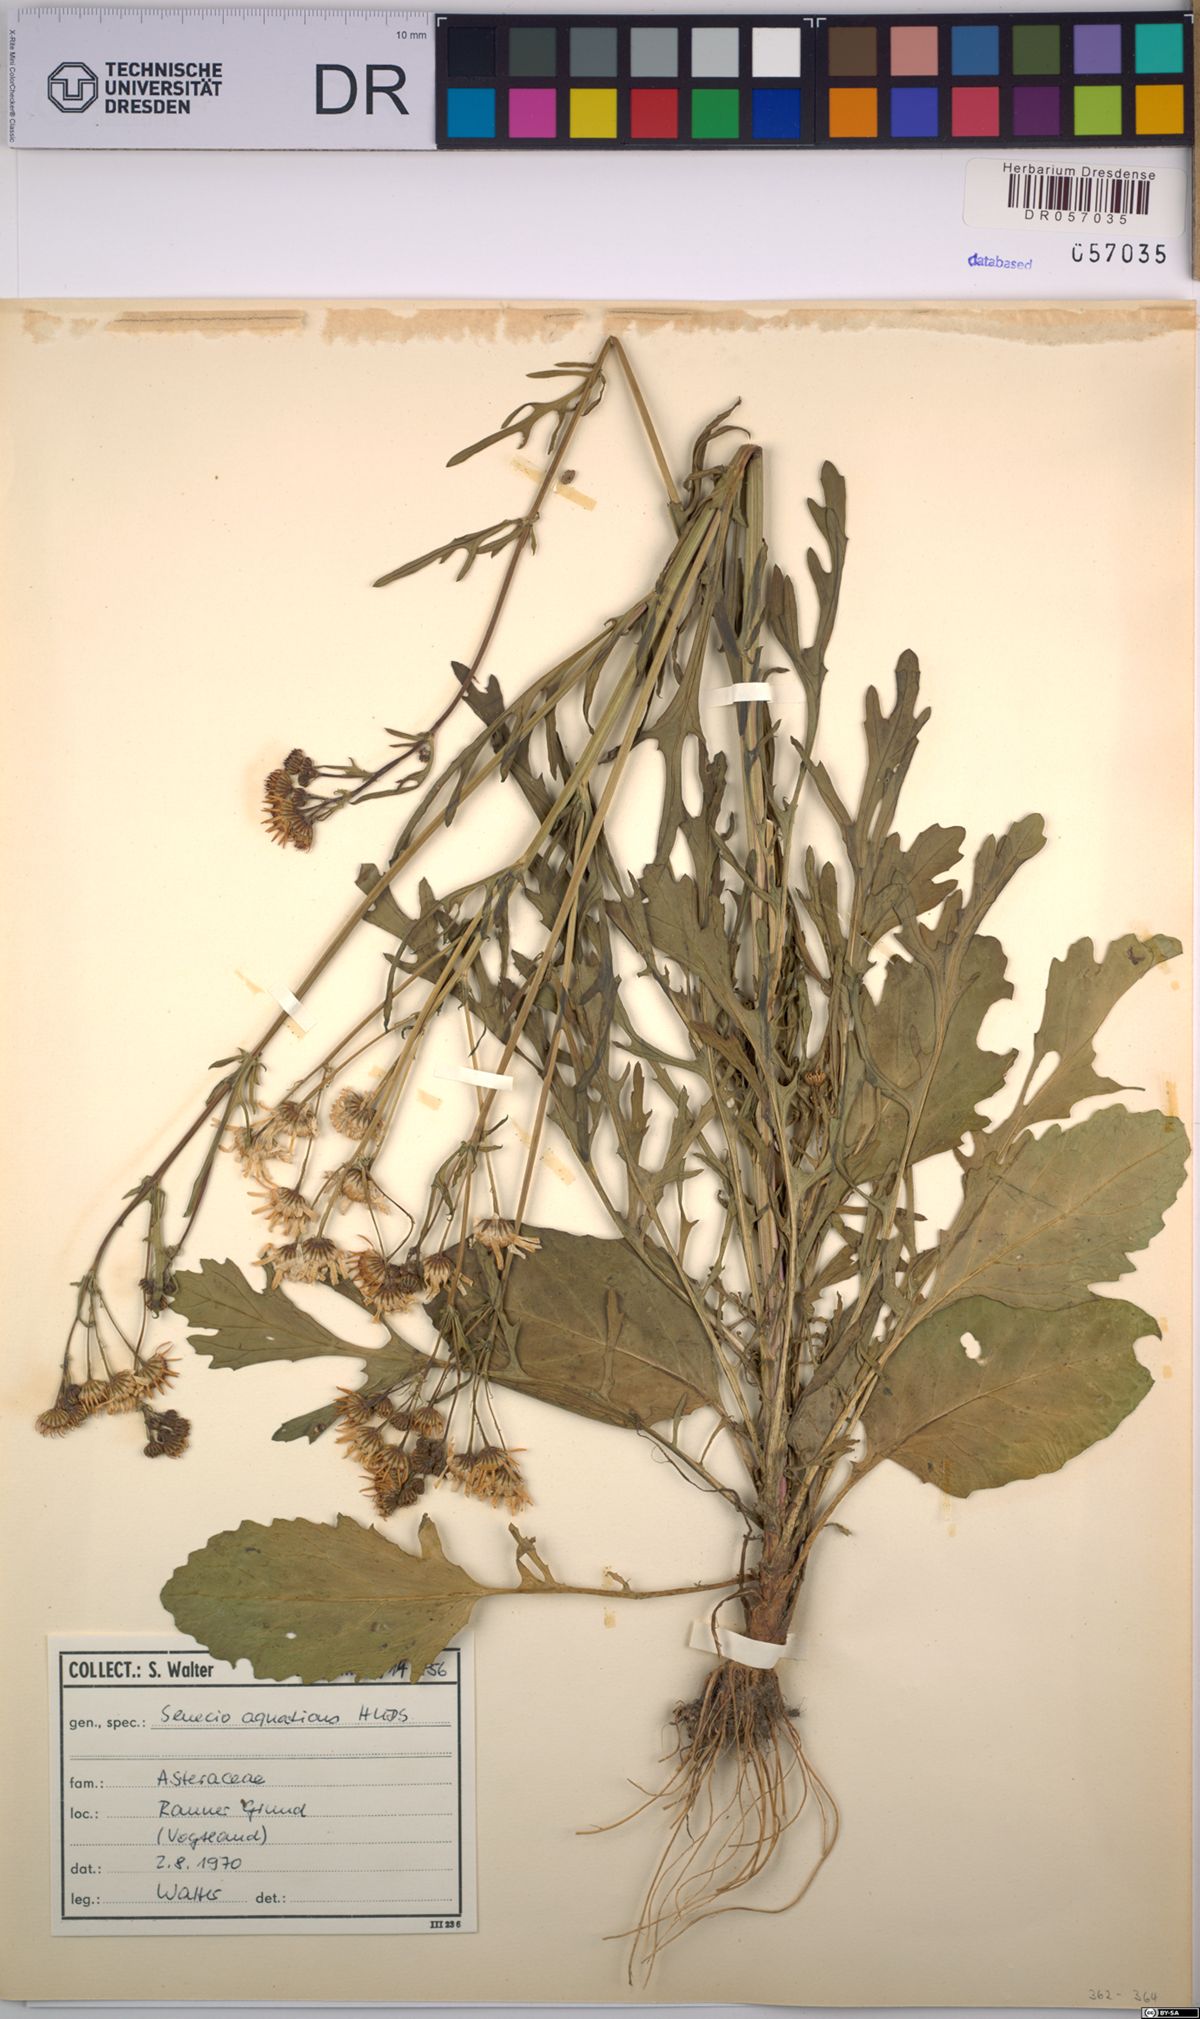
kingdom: Plantae
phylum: Tracheophyta
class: Magnoliopsida
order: Asterales
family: Asteraceae
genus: Jacobaea
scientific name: Jacobaea aquatica
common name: Water ragwort
